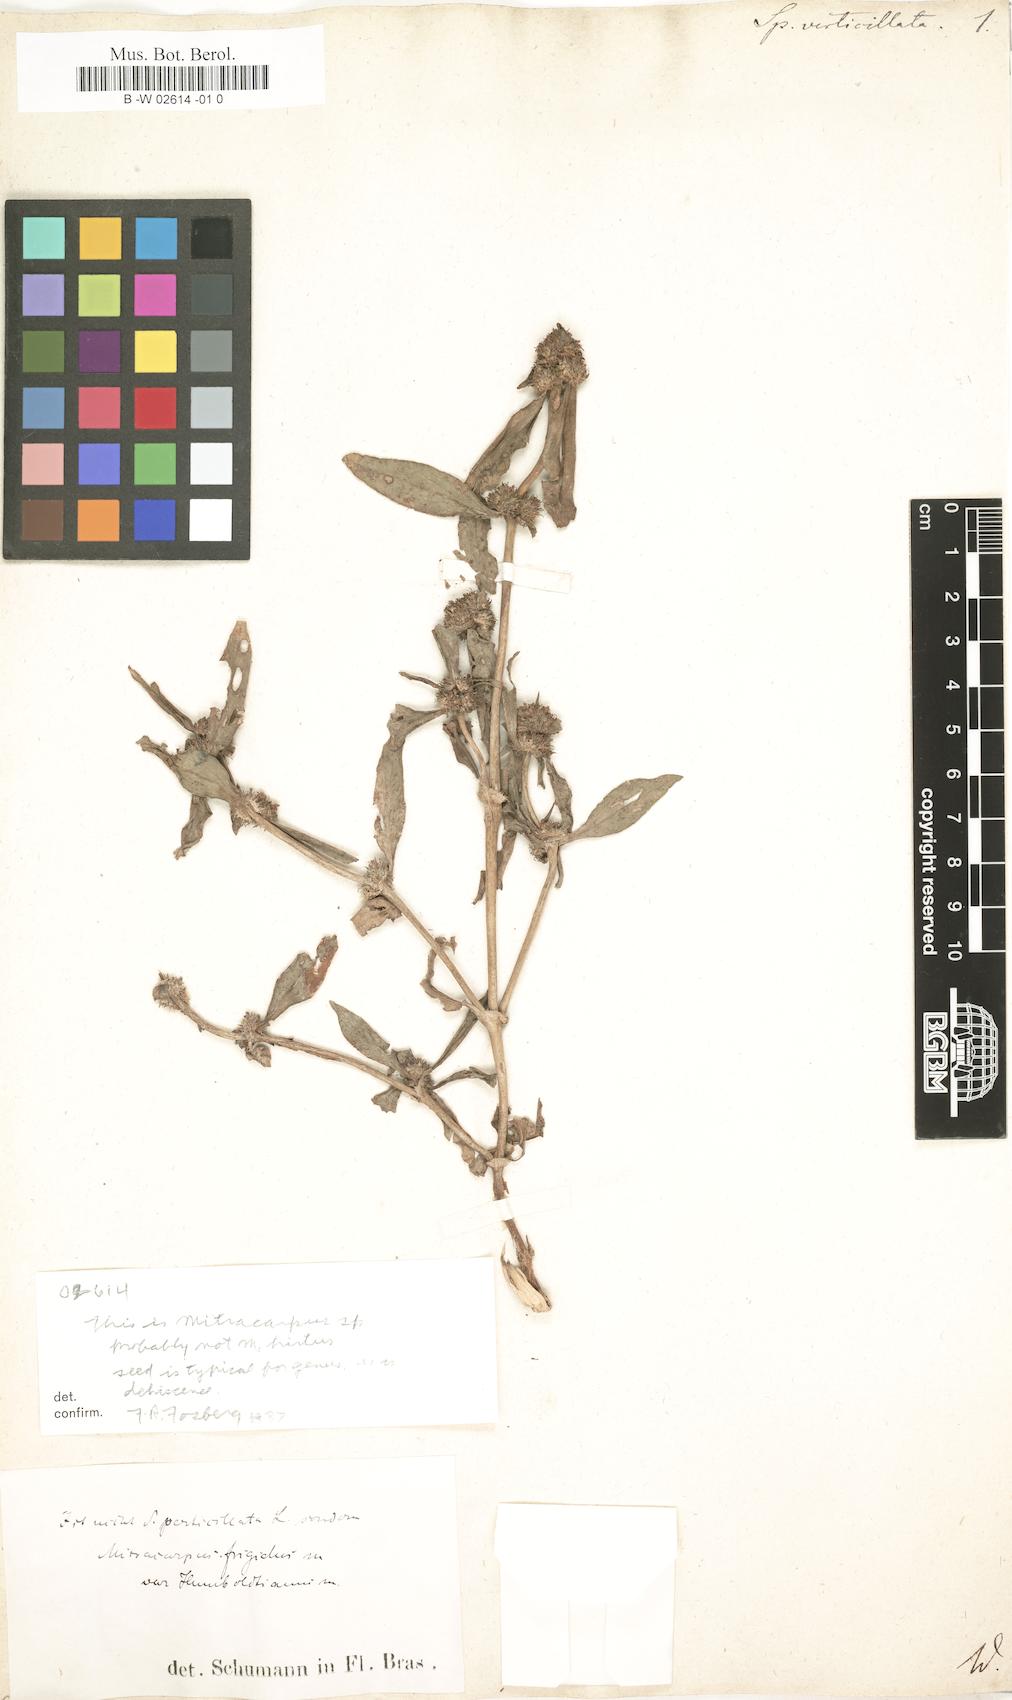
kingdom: Plantae
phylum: Tracheophyta
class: Magnoliopsida
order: Gentianales
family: Rubiaceae
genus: Spermacoce
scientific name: Spermacoce verticillata
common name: Shrubby false buttonweed
